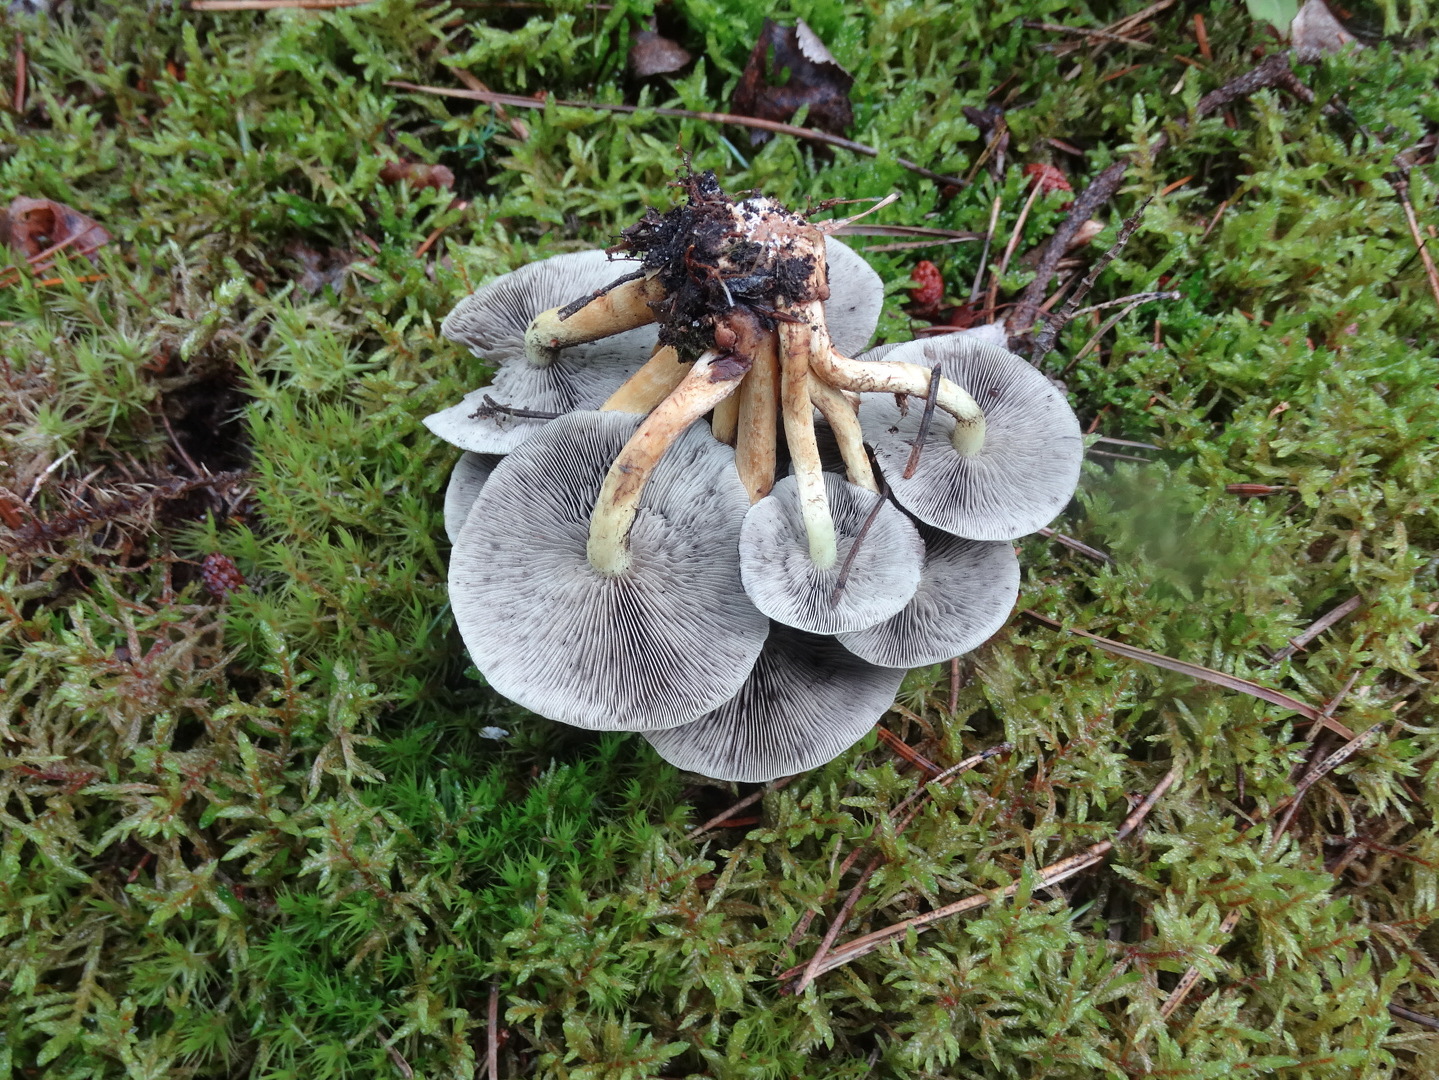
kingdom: Fungi
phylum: Basidiomycota
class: Agaricomycetes
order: Agaricales
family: Strophariaceae
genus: Hypholoma
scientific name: Hypholoma capnoides
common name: gran-svovlhat
